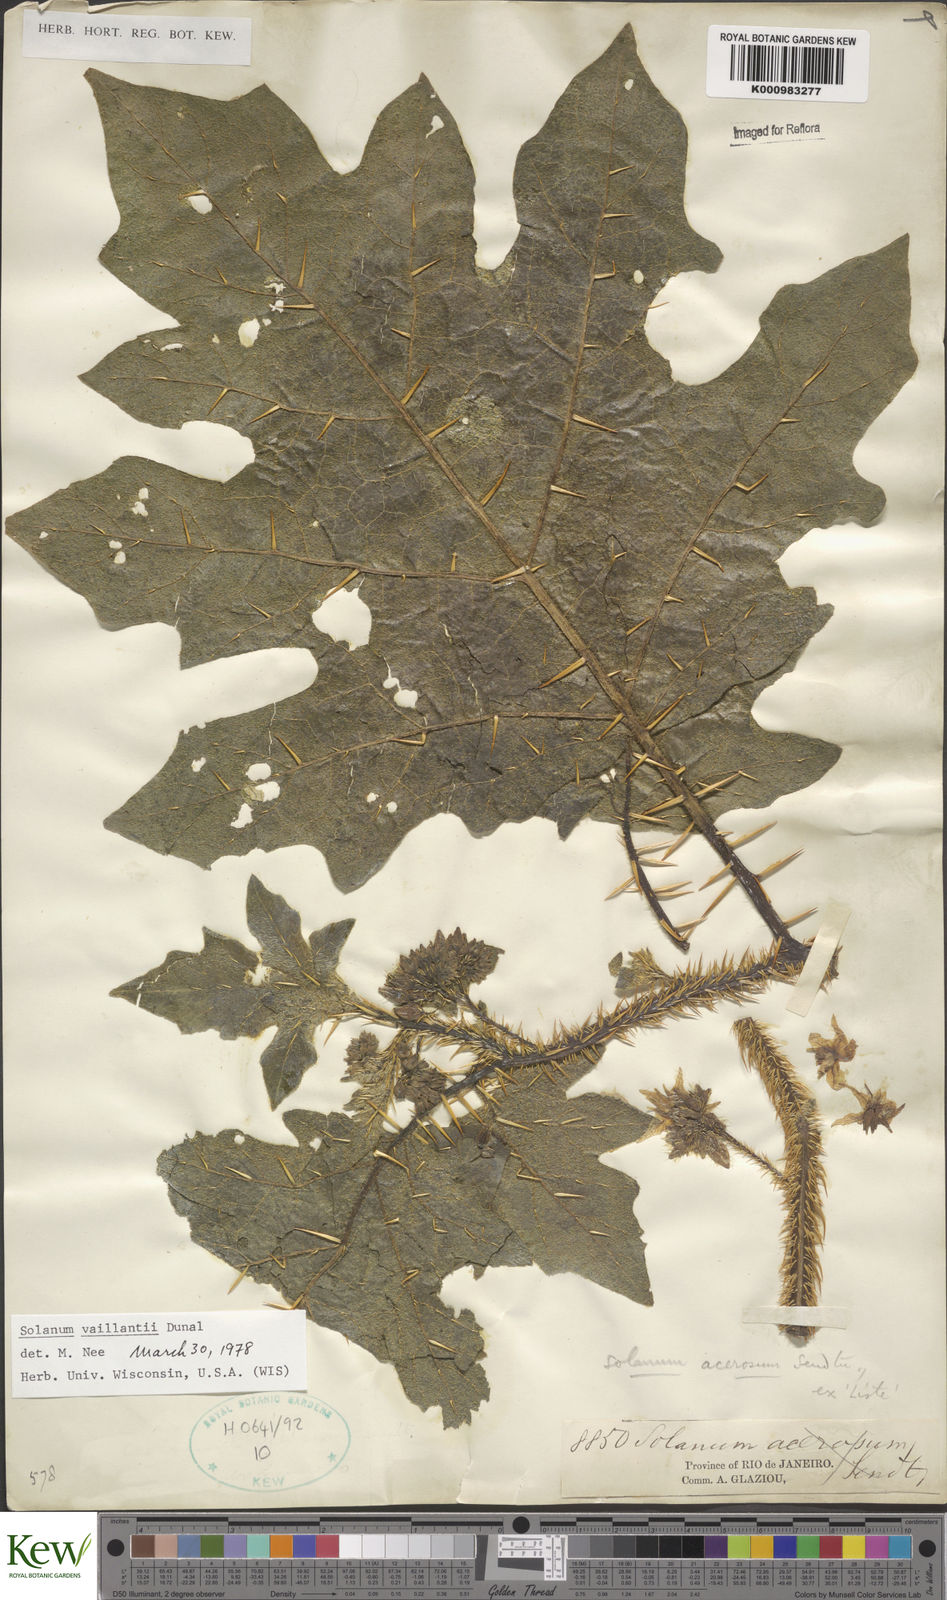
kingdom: Plantae
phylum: Tracheophyta
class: Magnoliopsida
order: Solanales
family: Solanaceae
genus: Solanum
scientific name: Solanum vaillantii
